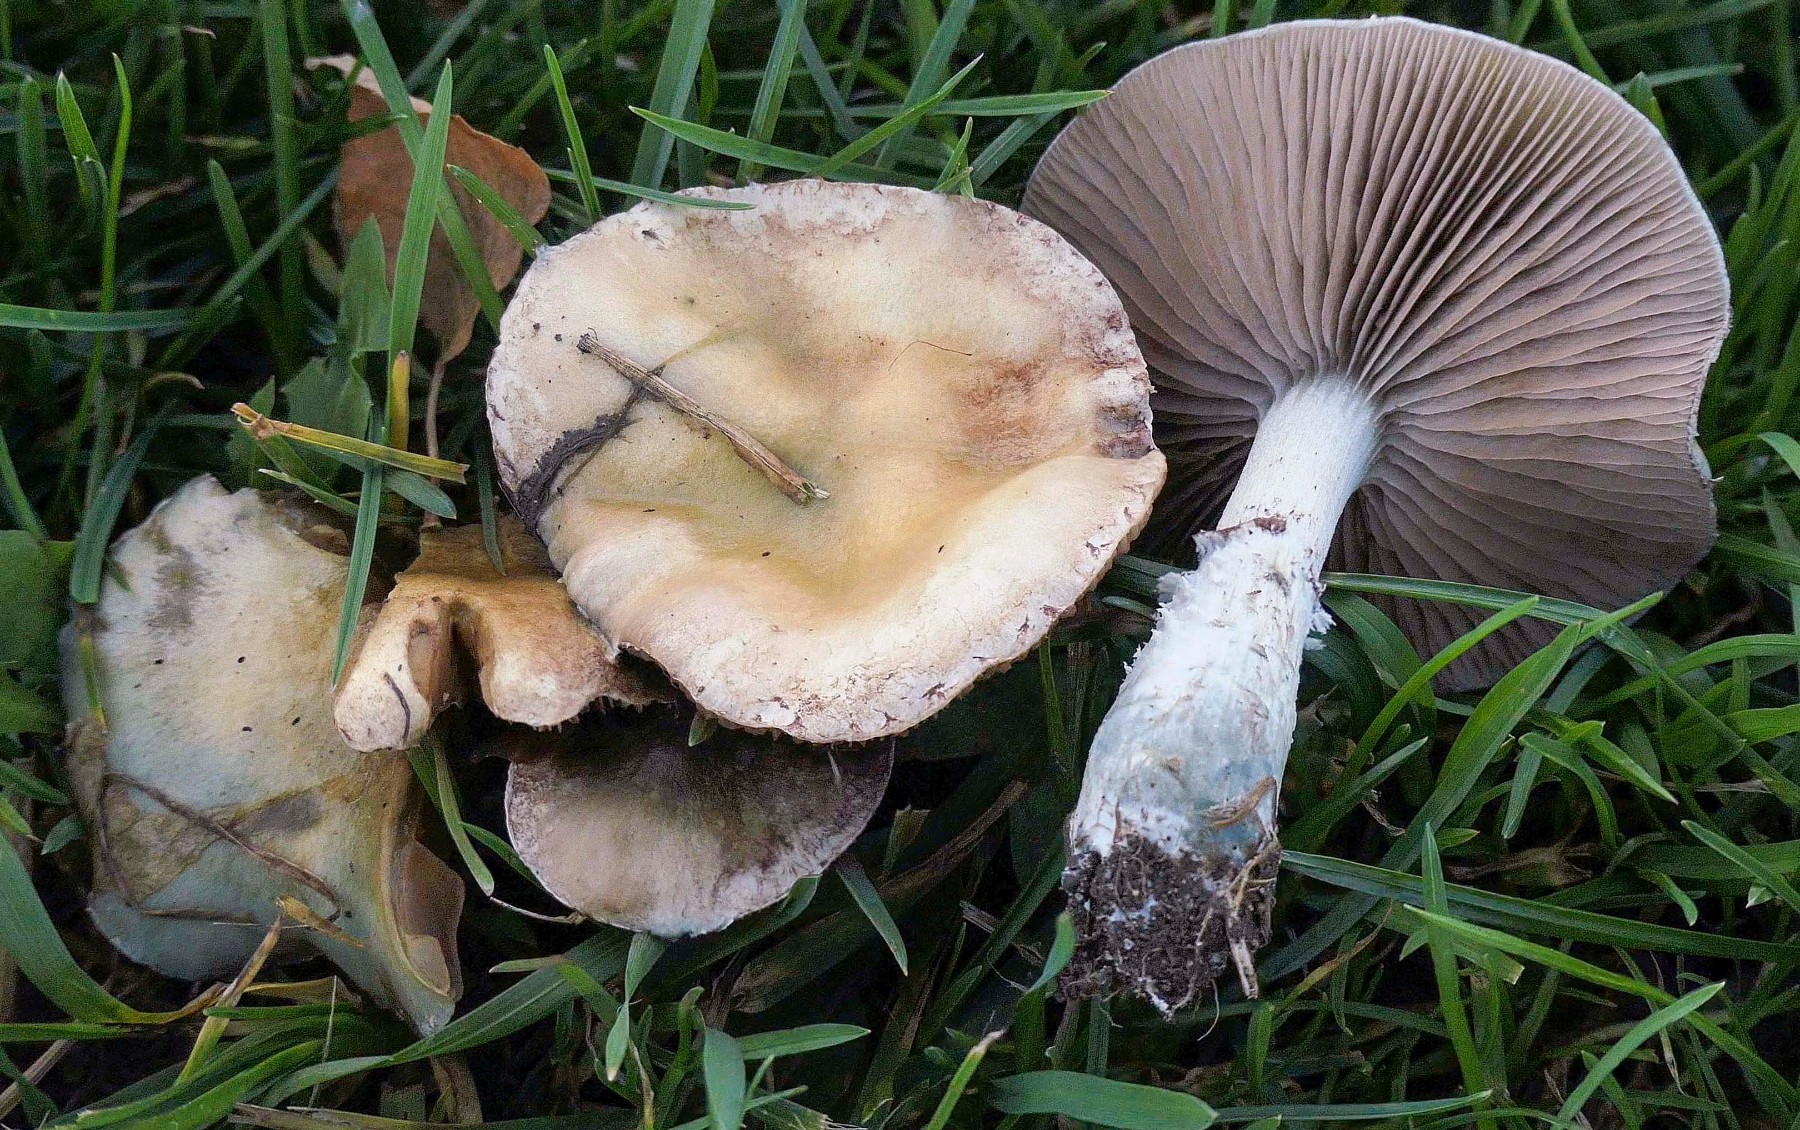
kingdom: Fungi
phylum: Basidiomycota
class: Agaricomycetes
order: Agaricales
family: Strophariaceae
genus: Stropharia
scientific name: Stropharia pseudocyanea
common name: blegblå bredblad
